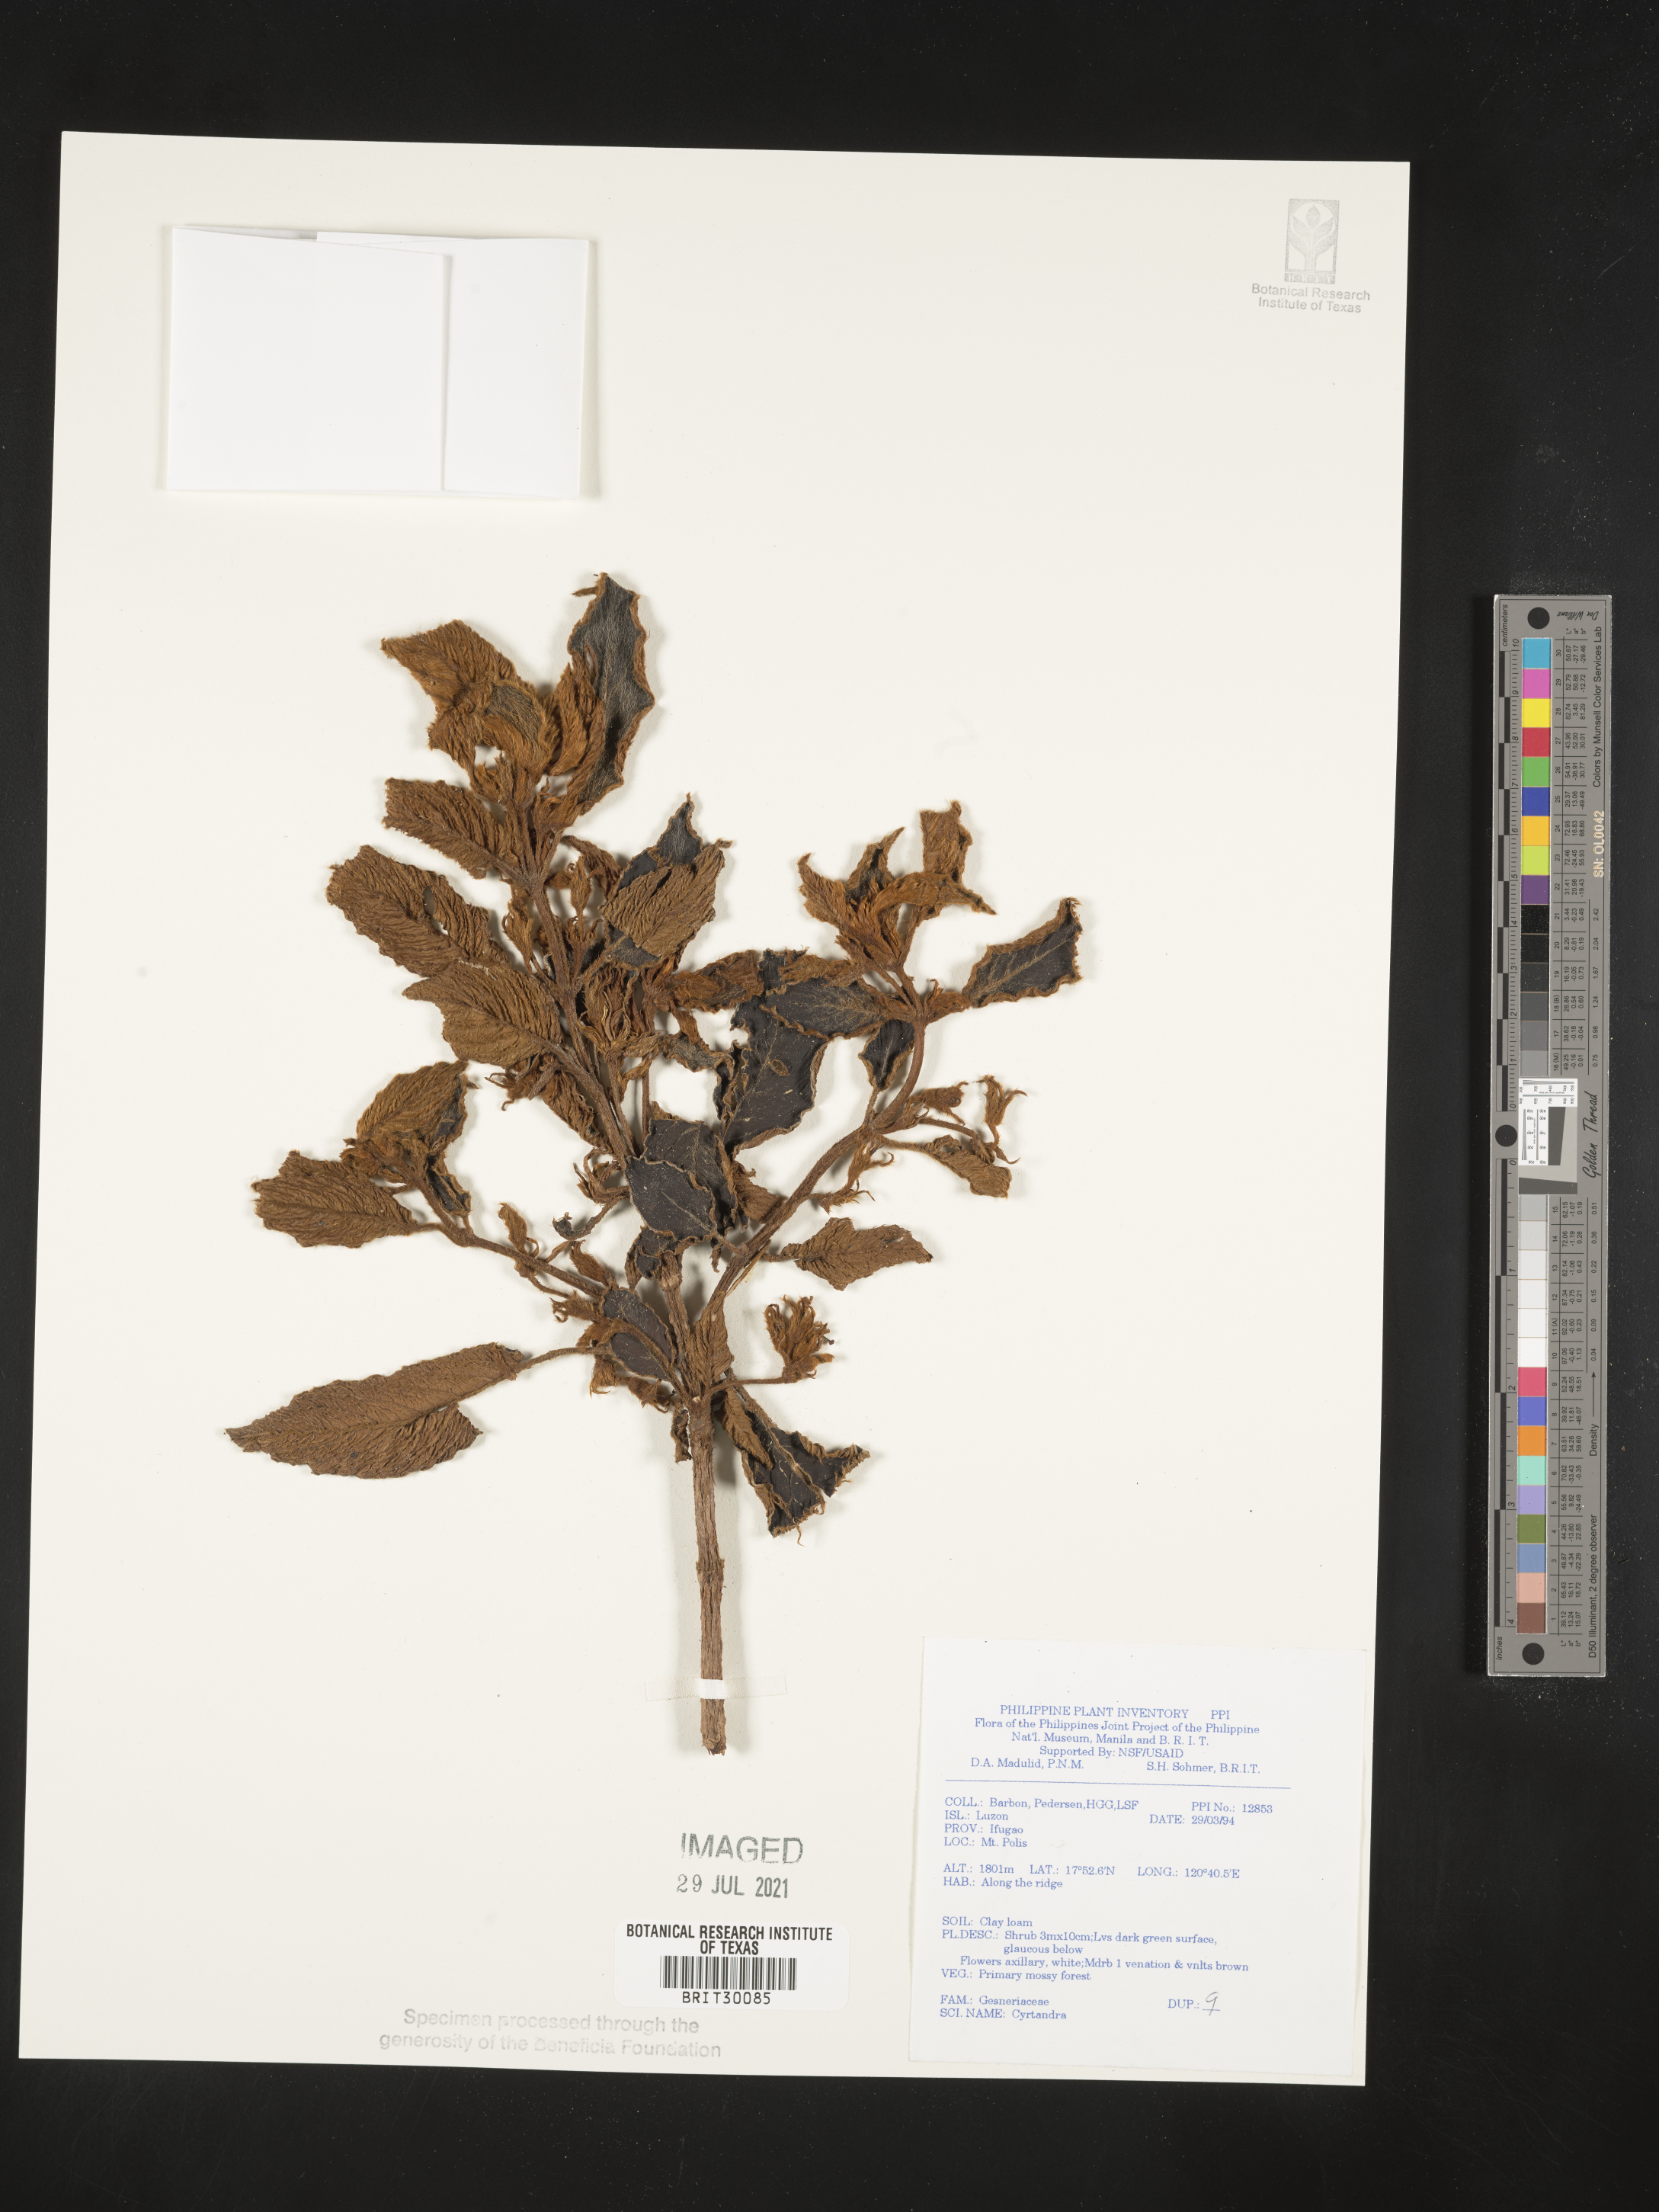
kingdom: Plantae
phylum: Tracheophyta
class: Magnoliopsida
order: Lamiales
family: Gesneriaceae
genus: Cyrtandra
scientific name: Cyrtandra
